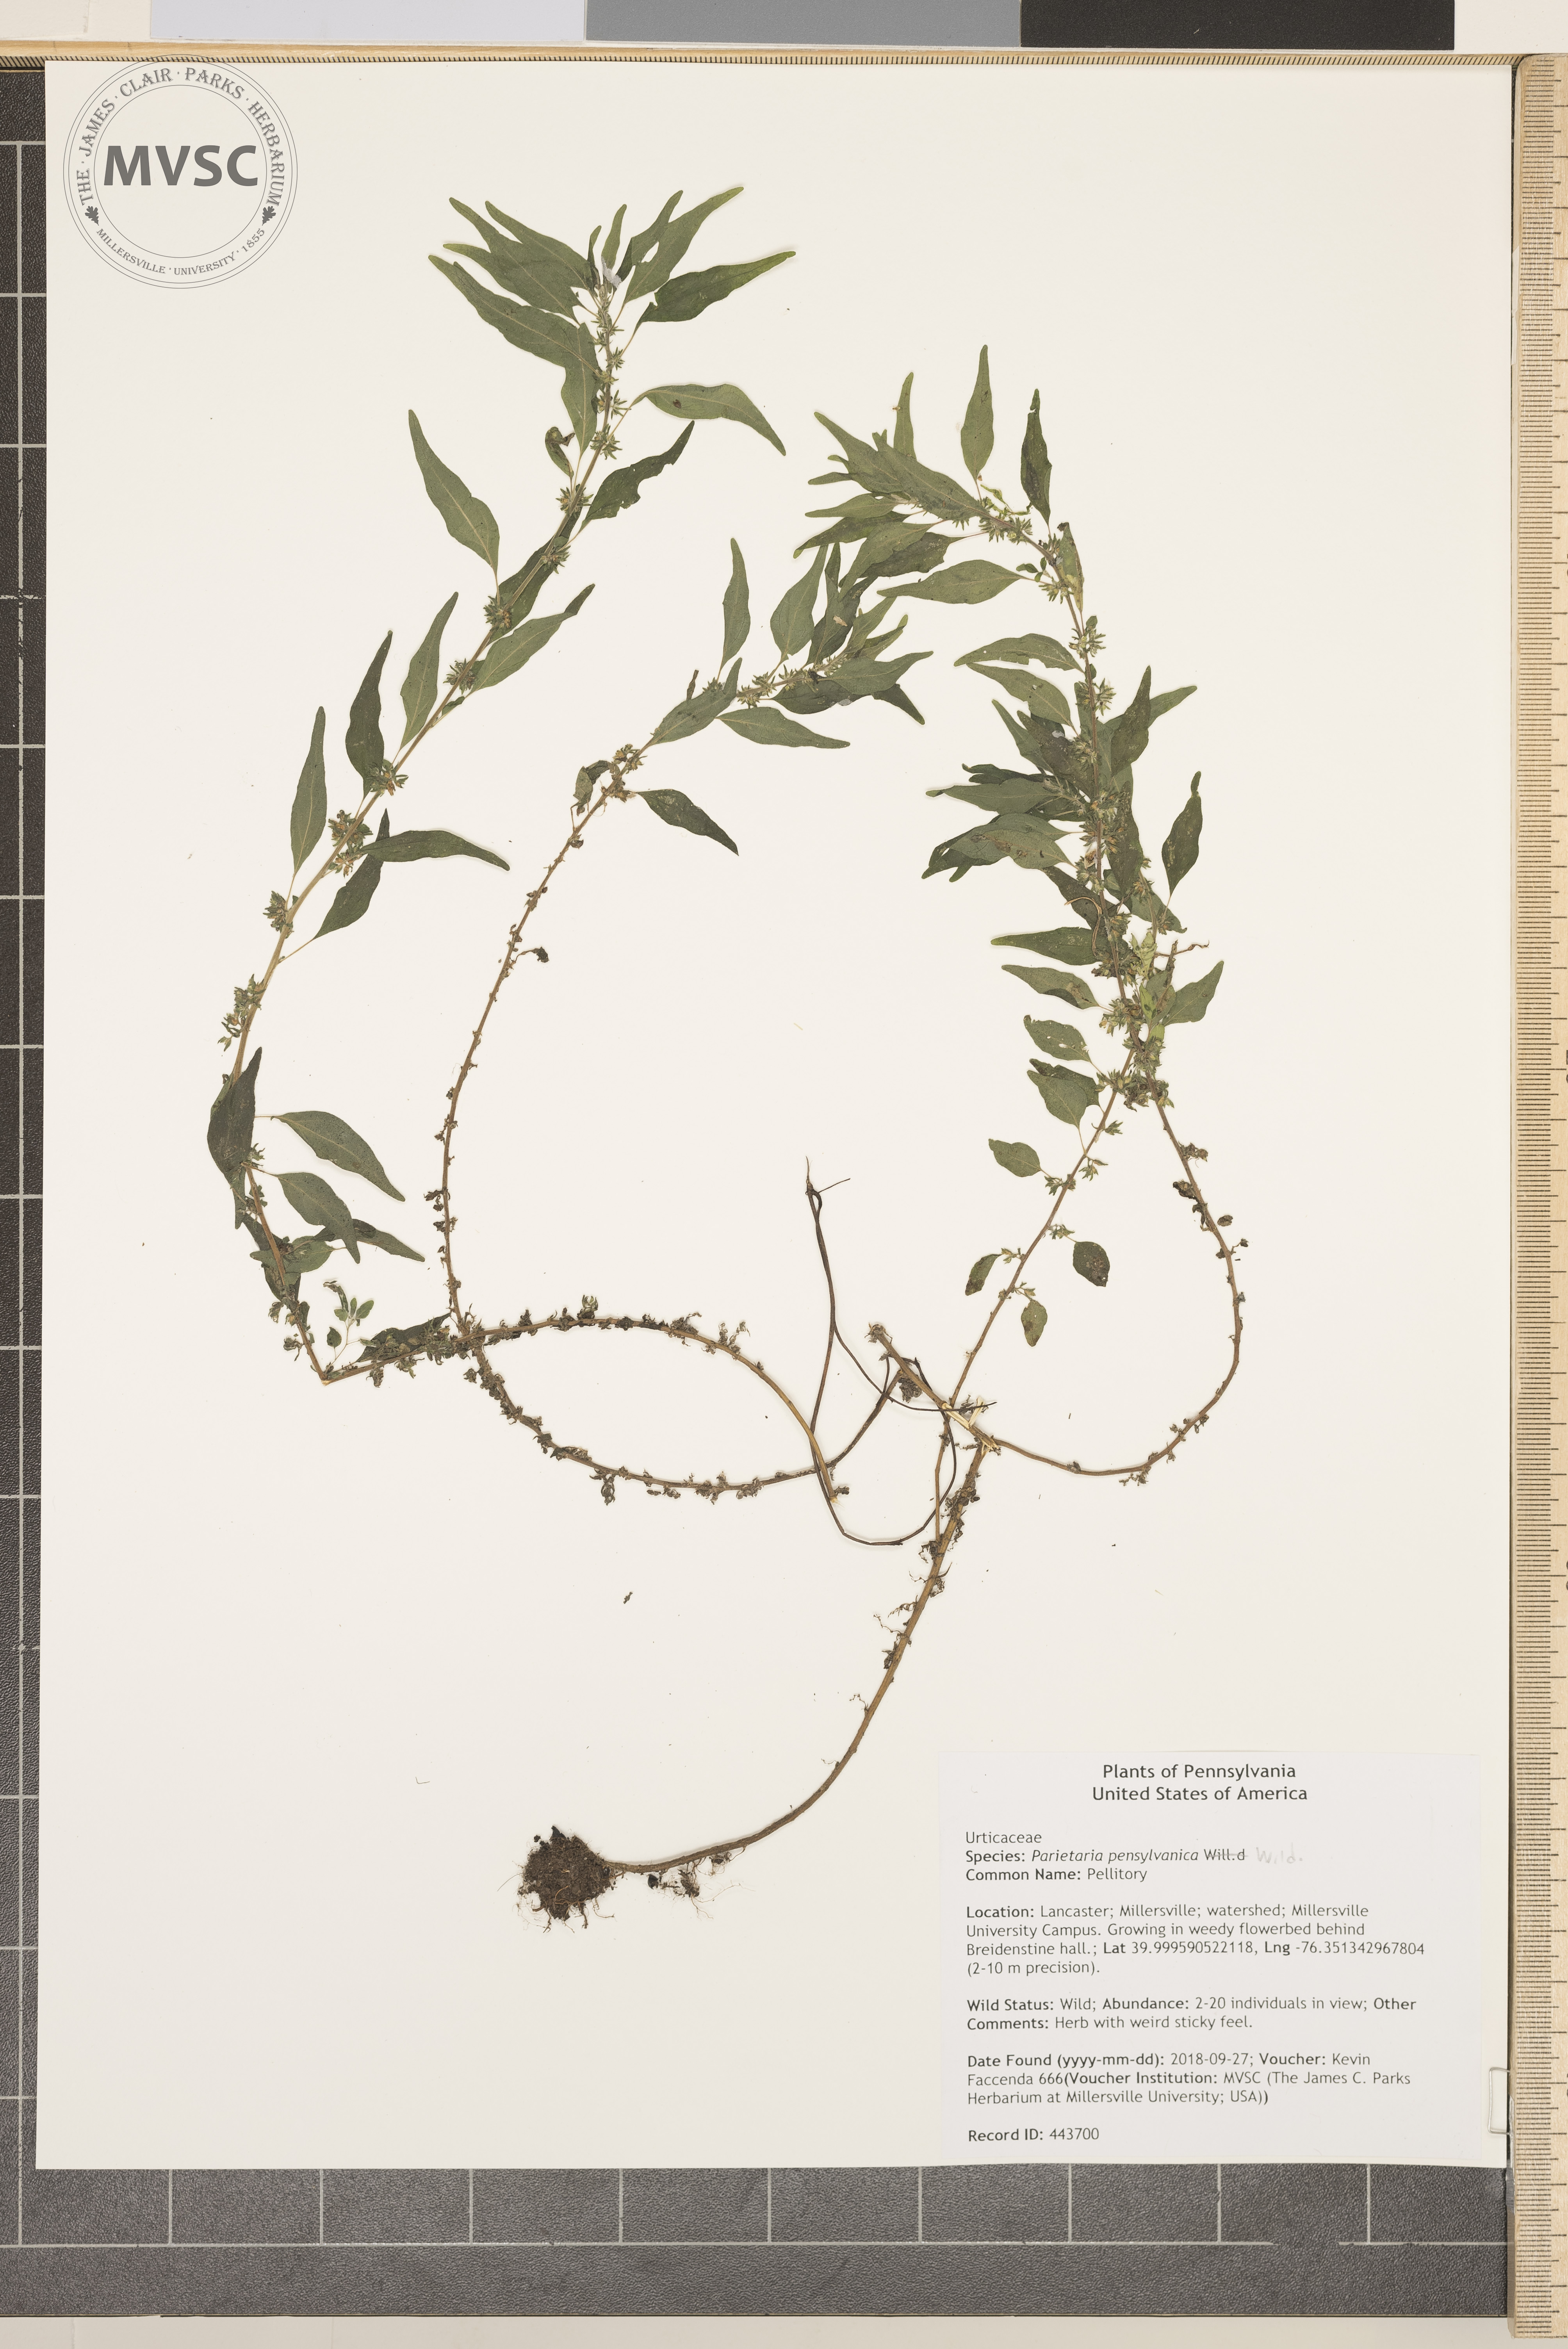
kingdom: Plantae
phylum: Tracheophyta
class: Magnoliopsida
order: Rosales
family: Urticaceae
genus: Parietaria
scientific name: Parietaria pensylvanica
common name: Pellitory
